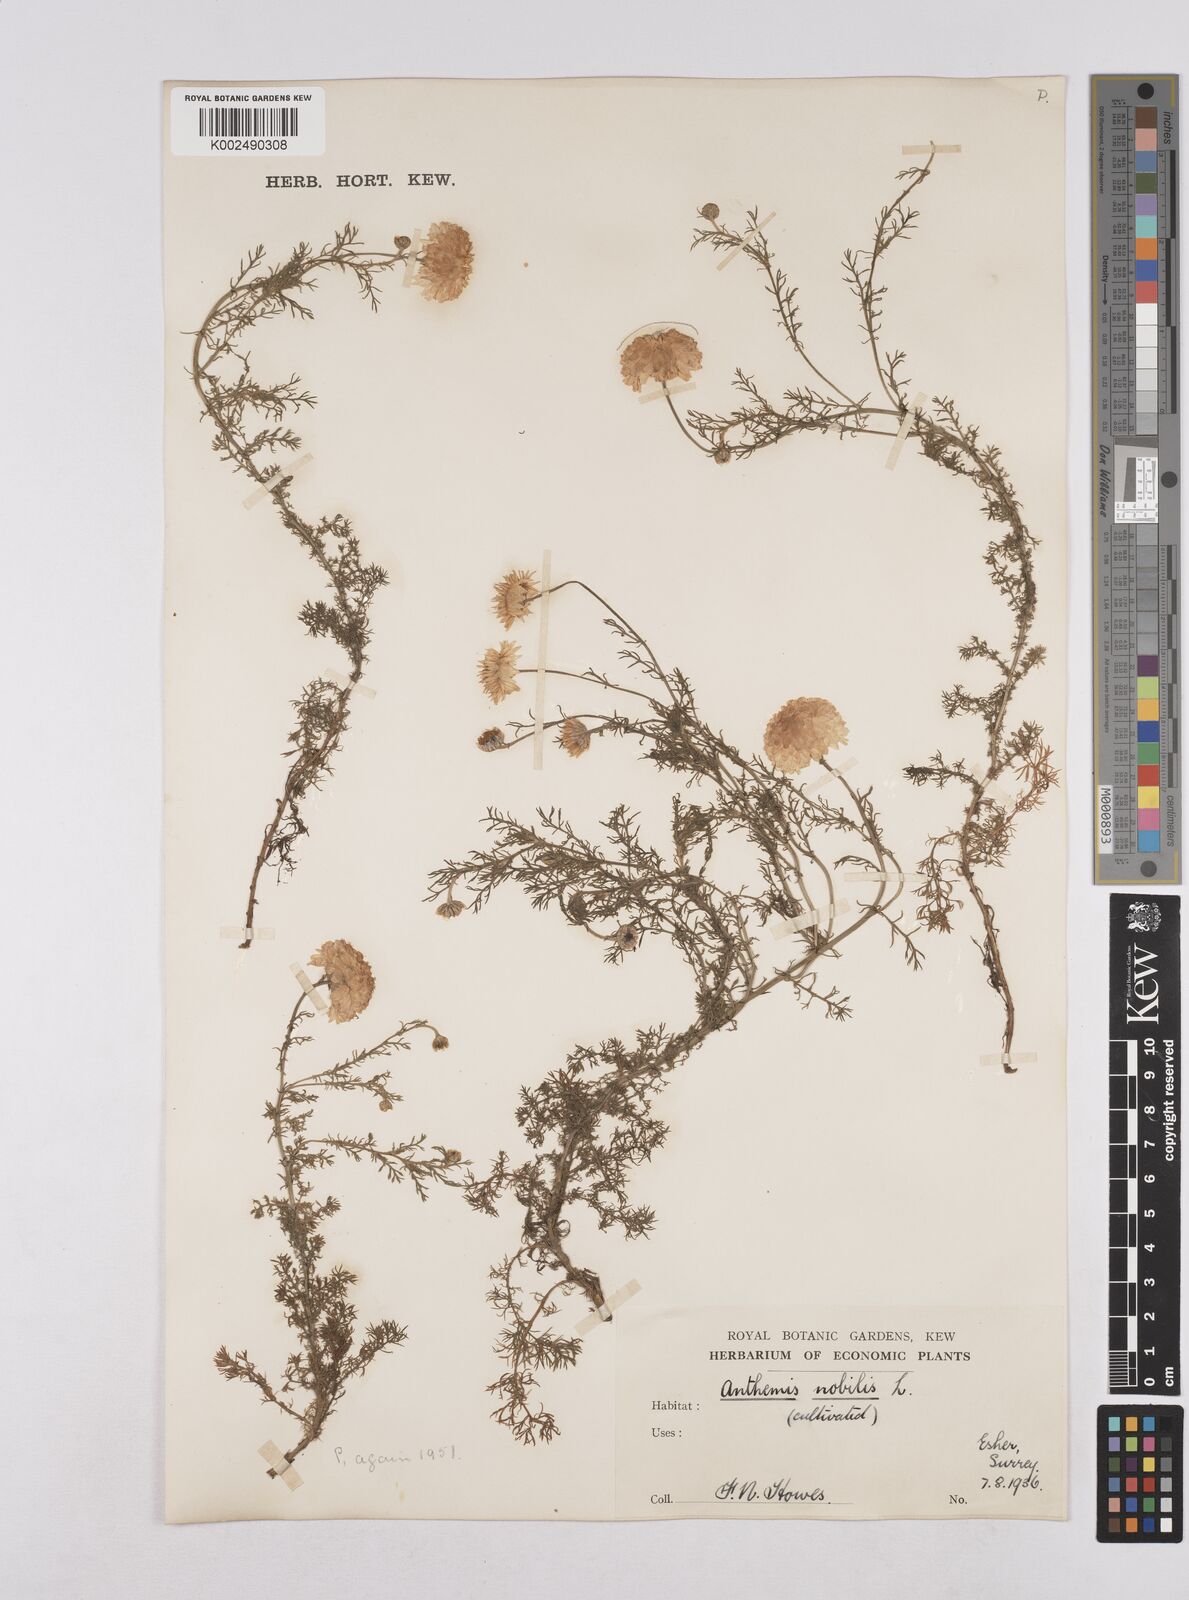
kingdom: Plantae
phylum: Tracheophyta
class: Magnoliopsida
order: Asterales
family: Asteraceae
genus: Matricaria
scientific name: Matricaria chamomilla
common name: Scented mayweed
